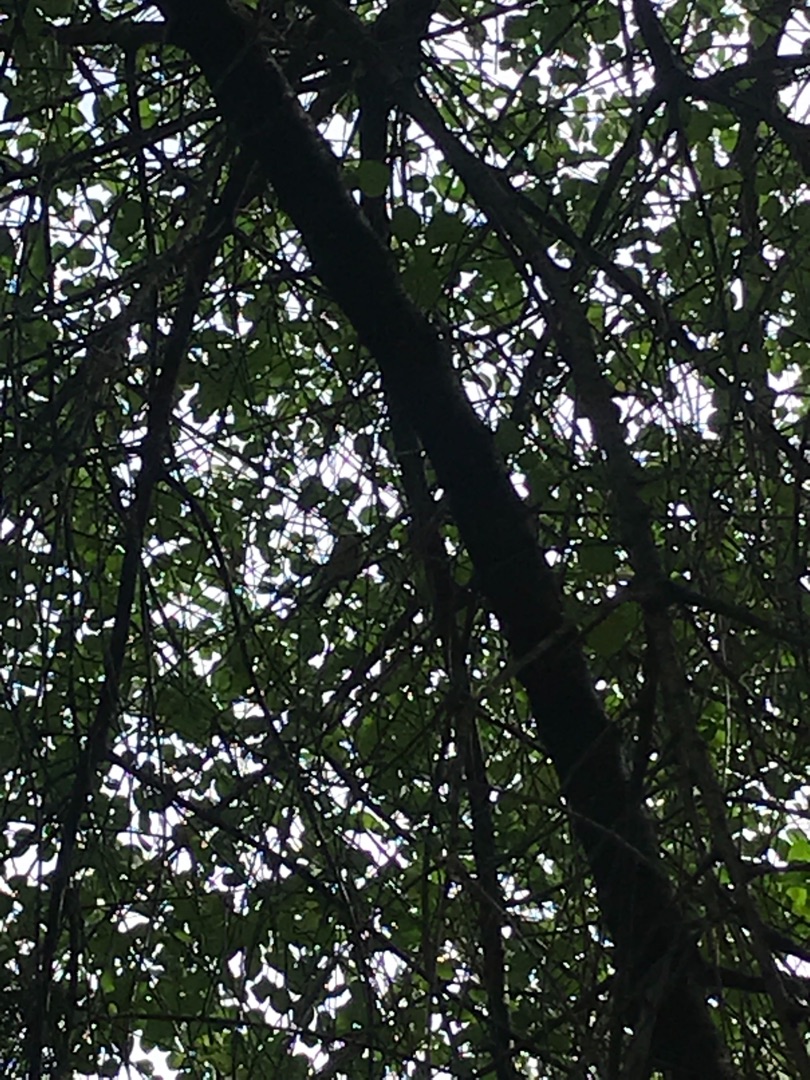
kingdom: Animalia
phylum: Chordata
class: Aves
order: Passeriformes
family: Paridae
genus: Parus
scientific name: Parus major
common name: Musvit
